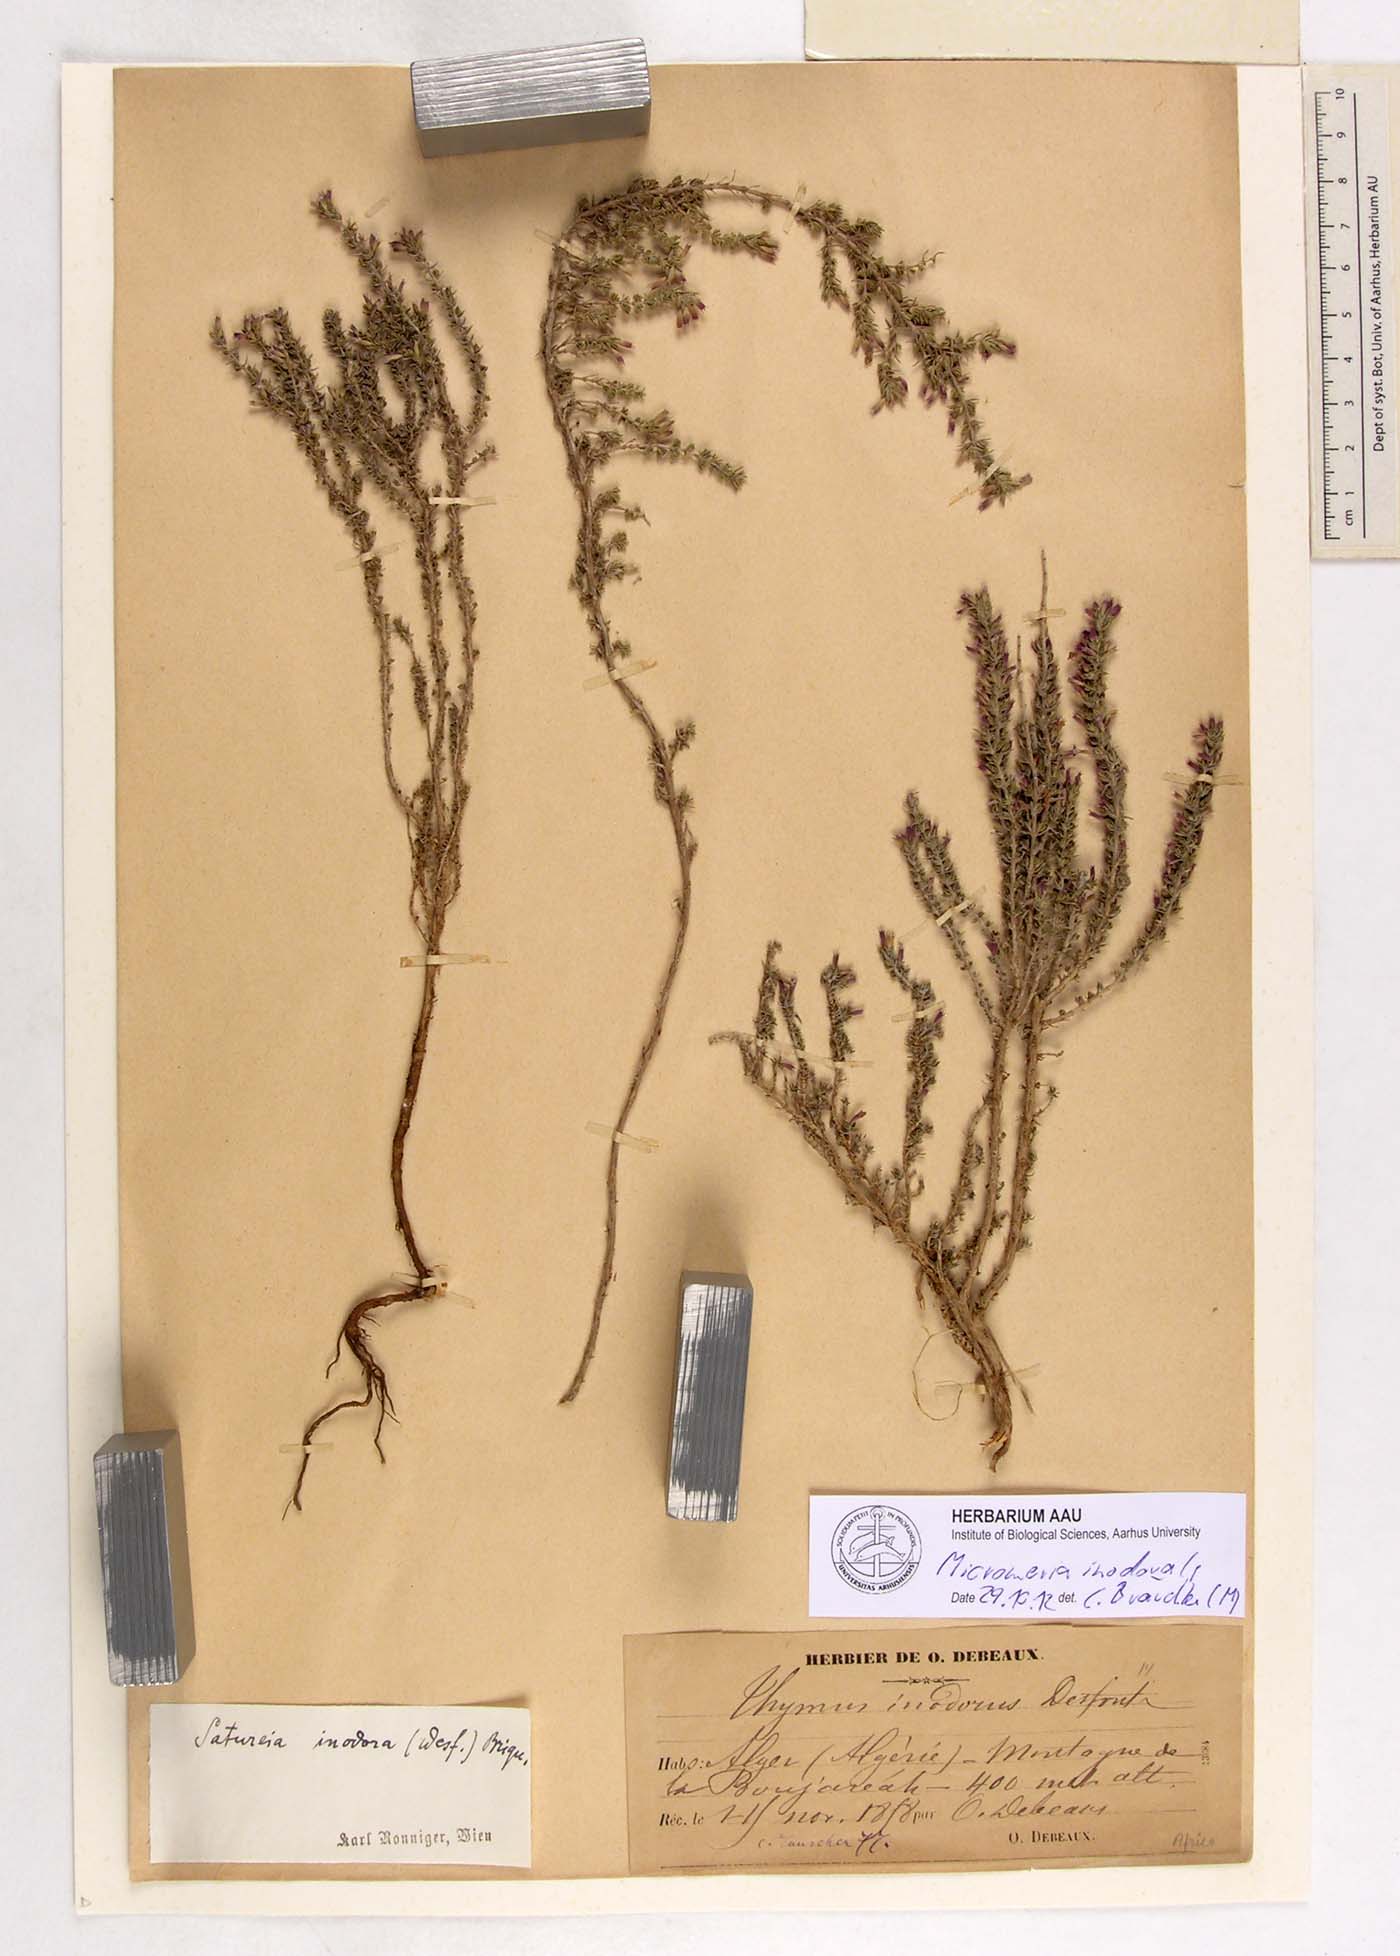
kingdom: Plantae
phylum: Tracheophyta
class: Magnoliopsida
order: Lamiales
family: Lamiaceae
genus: Micromeria
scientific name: Micromeria inodora
